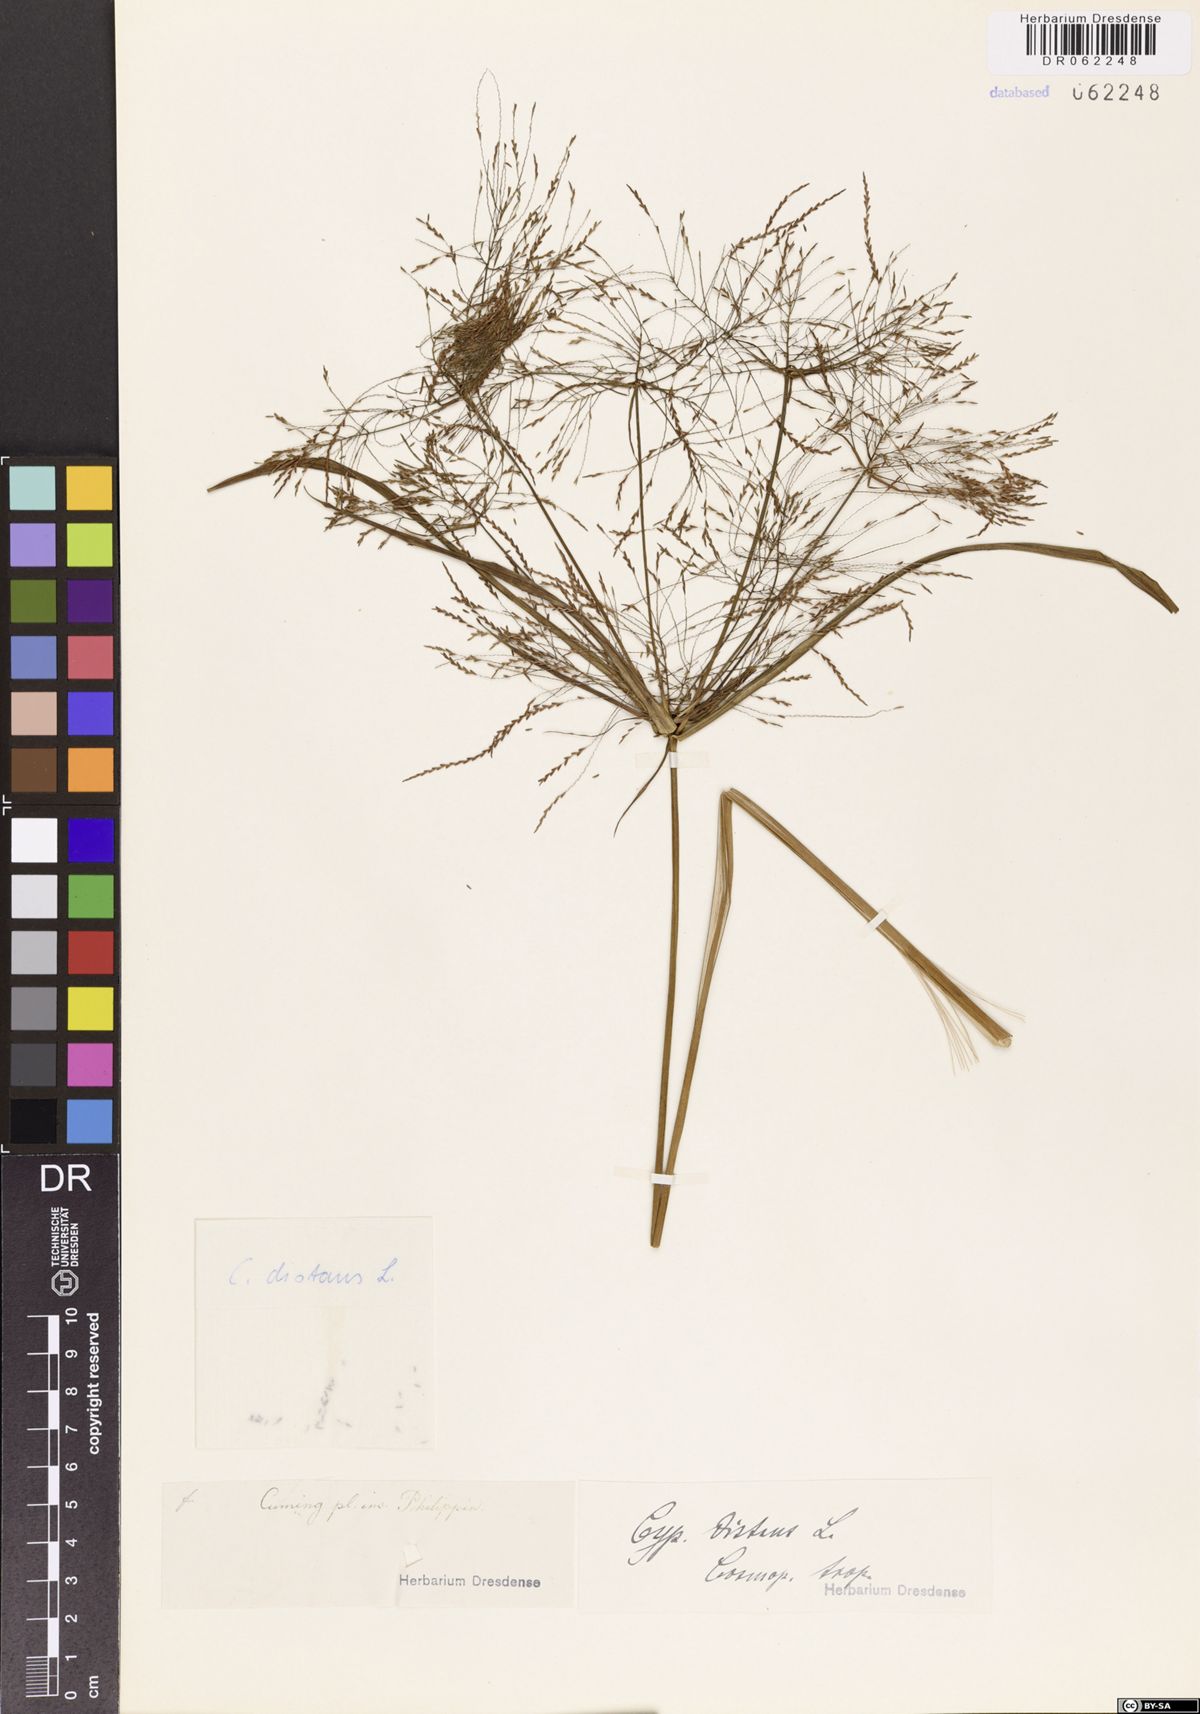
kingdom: Plantae
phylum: Tracheophyta
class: Liliopsida
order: Poales
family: Cyperaceae
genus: Cyperus
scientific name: Cyperus distans
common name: Slender cyperus
